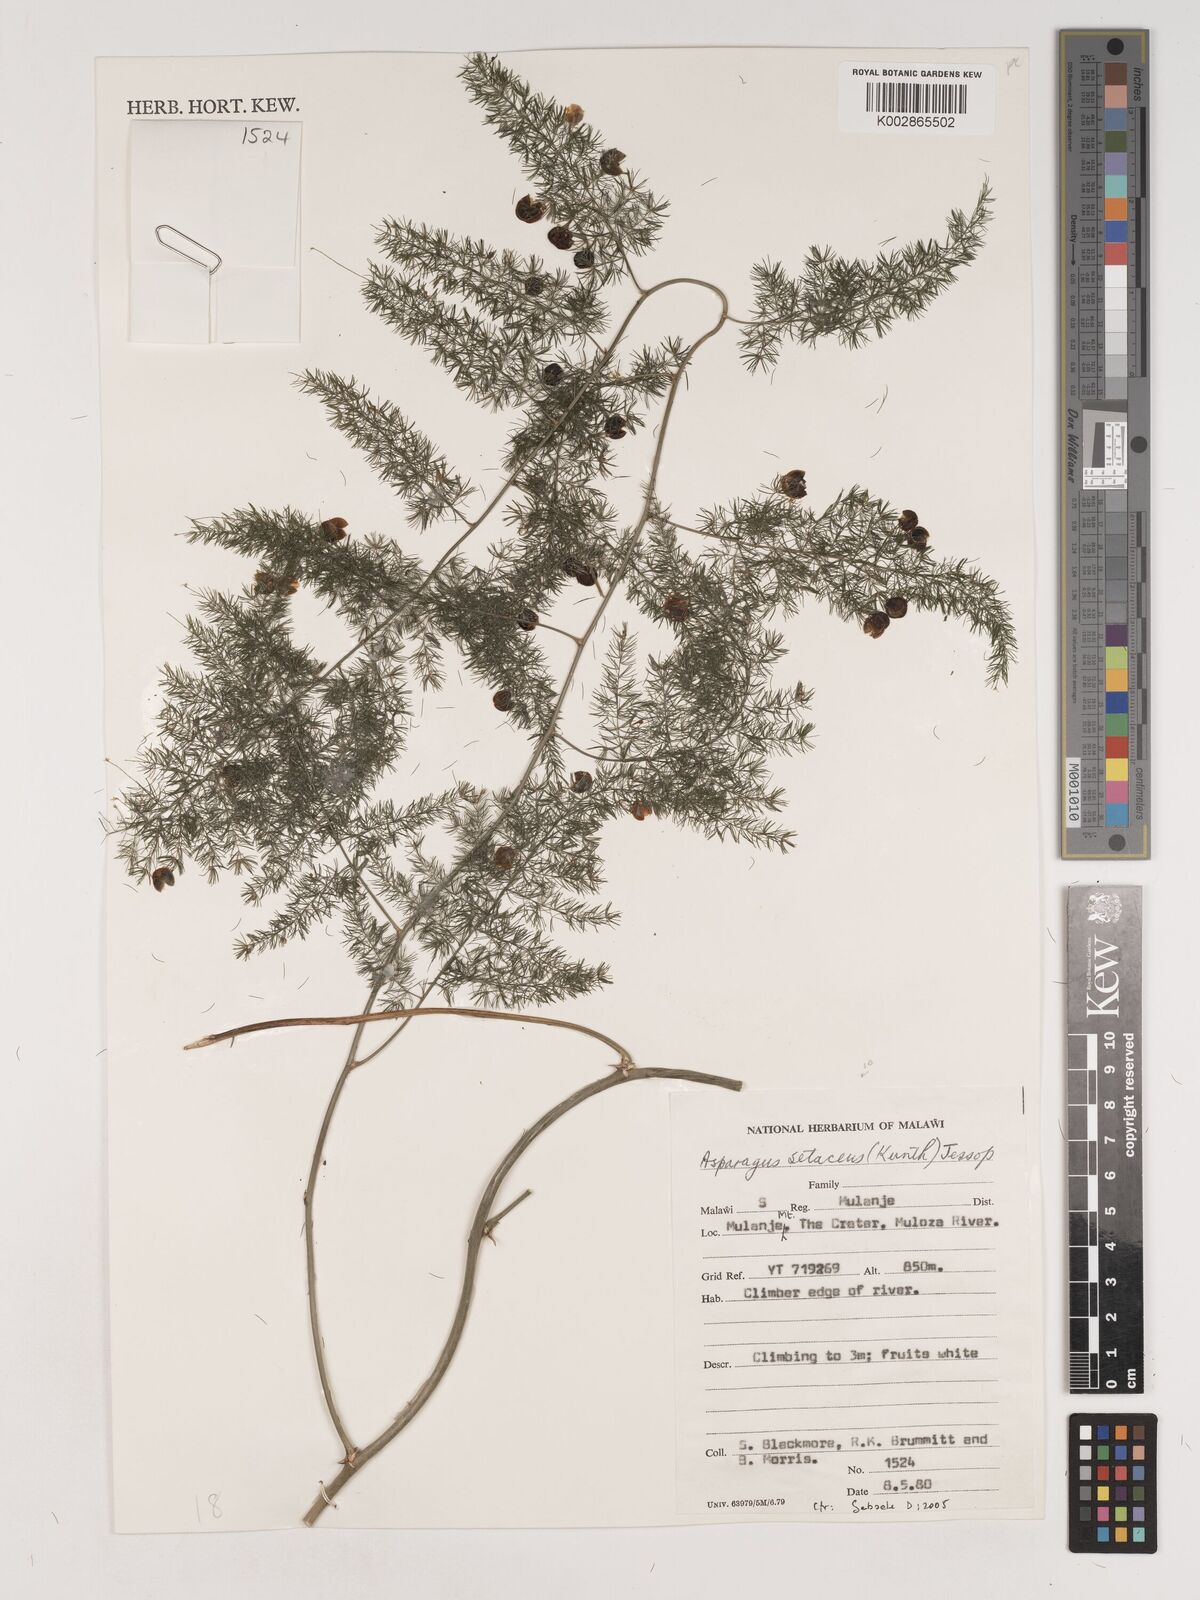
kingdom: Plantae
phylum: Tracheophyta
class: Liliopsida
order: Asparagales
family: Asparagaceae
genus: Asparagus
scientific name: Asparagus setaceus
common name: Common asparagus fern
